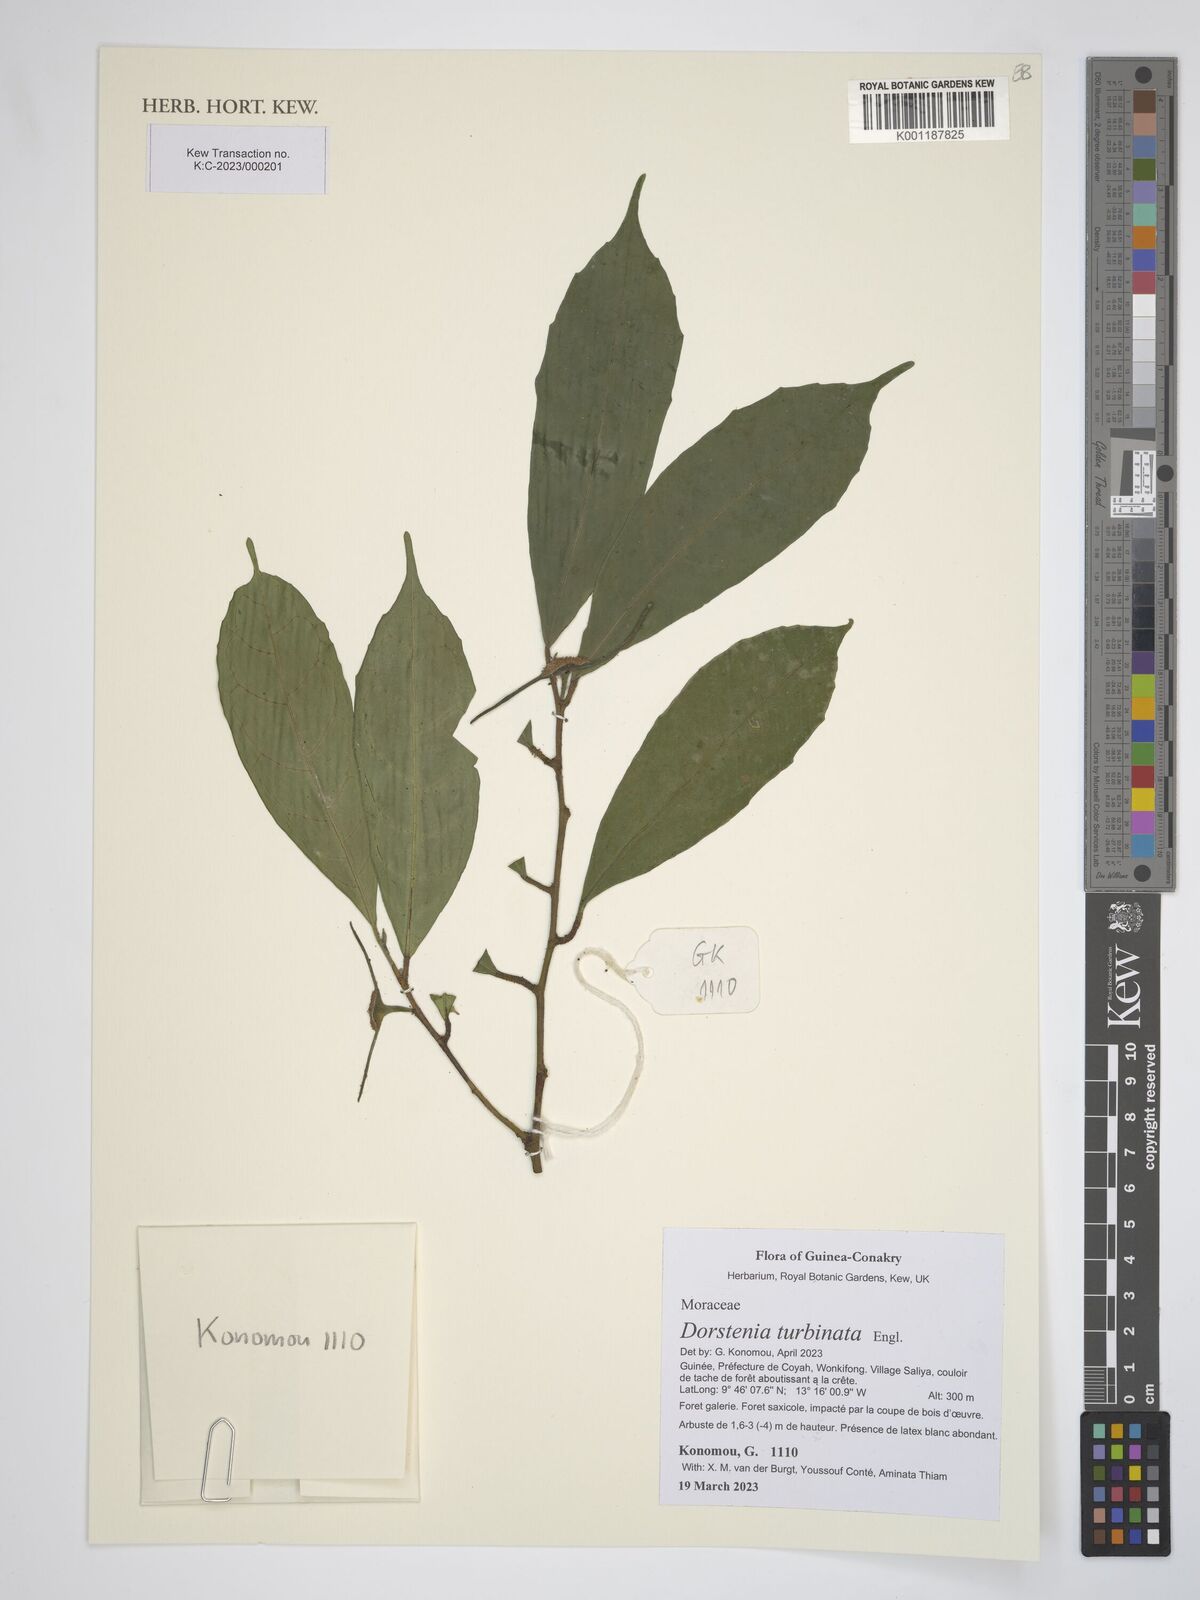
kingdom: Plantae
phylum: Tracheophyta
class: Magnoliopsida
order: Rosales
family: Moraceae
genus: Hijmania
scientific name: Hijmania turbinata
